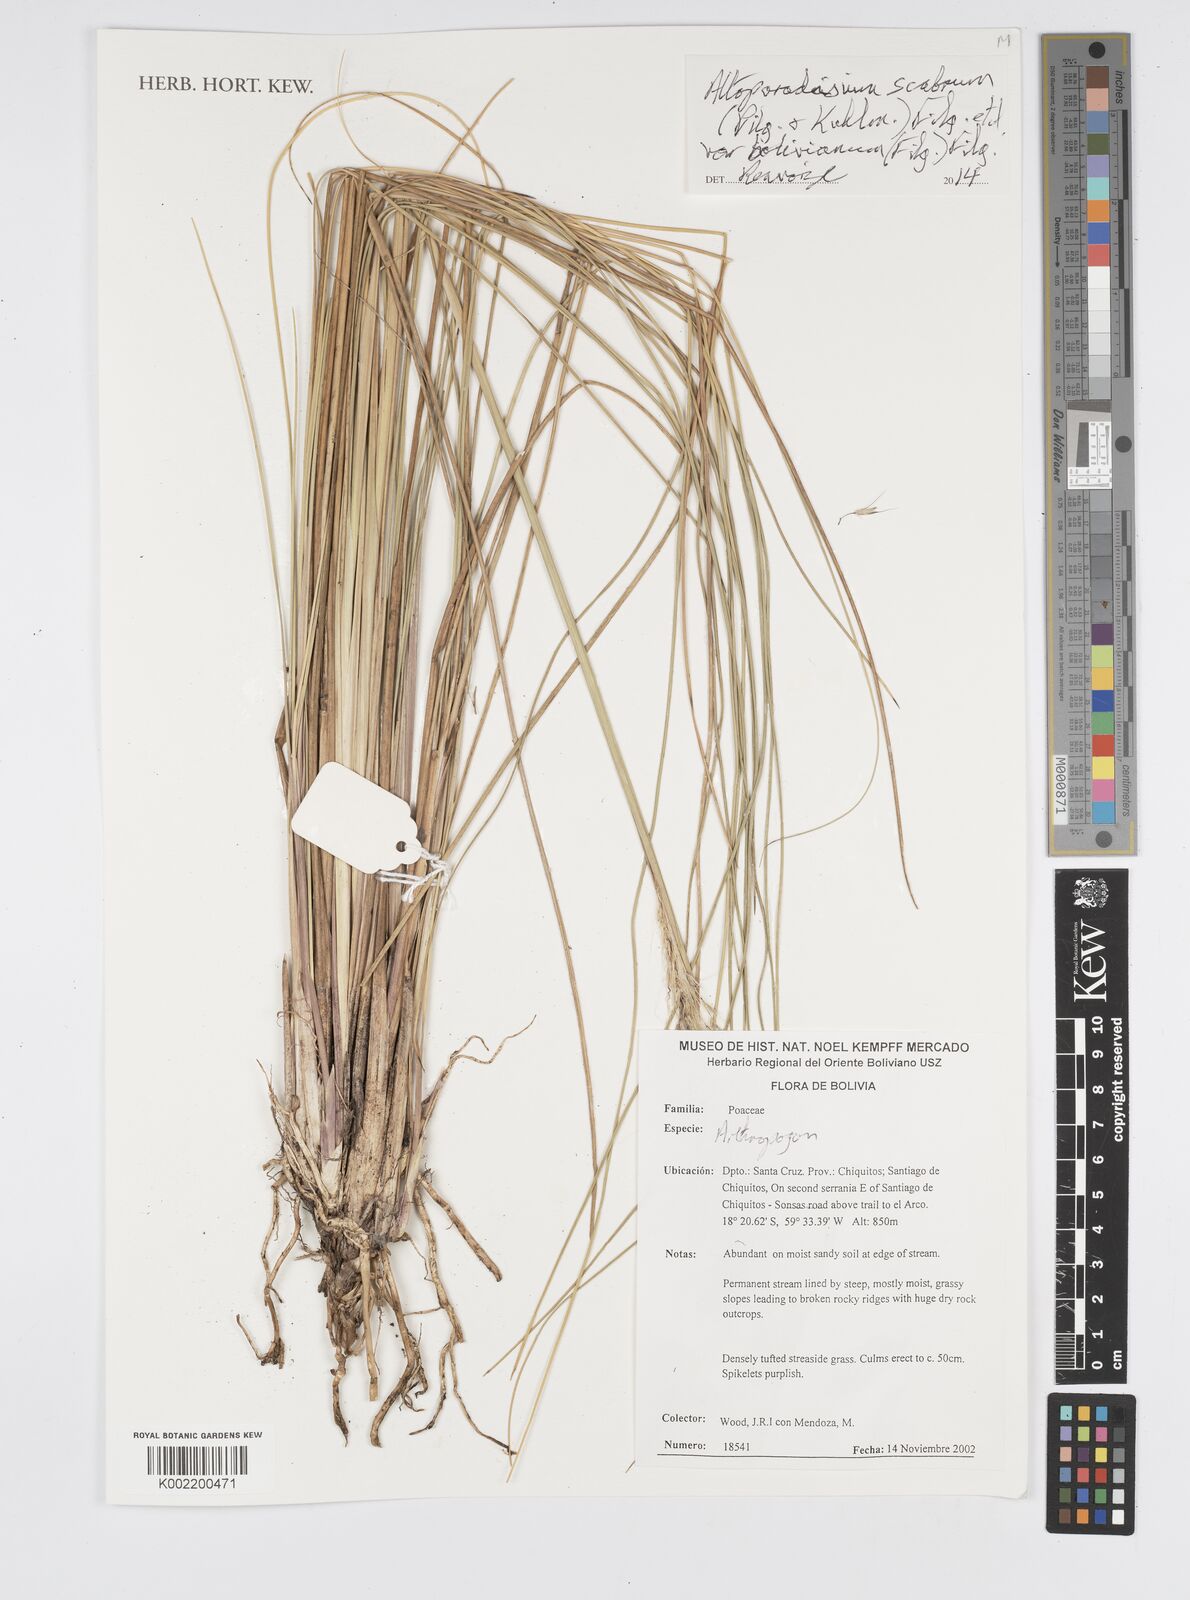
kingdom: Plantae
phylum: Tracheophyta
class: Liliopsida
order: Poales
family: Poaceae
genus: Arthropogon
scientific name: Arthropogon
